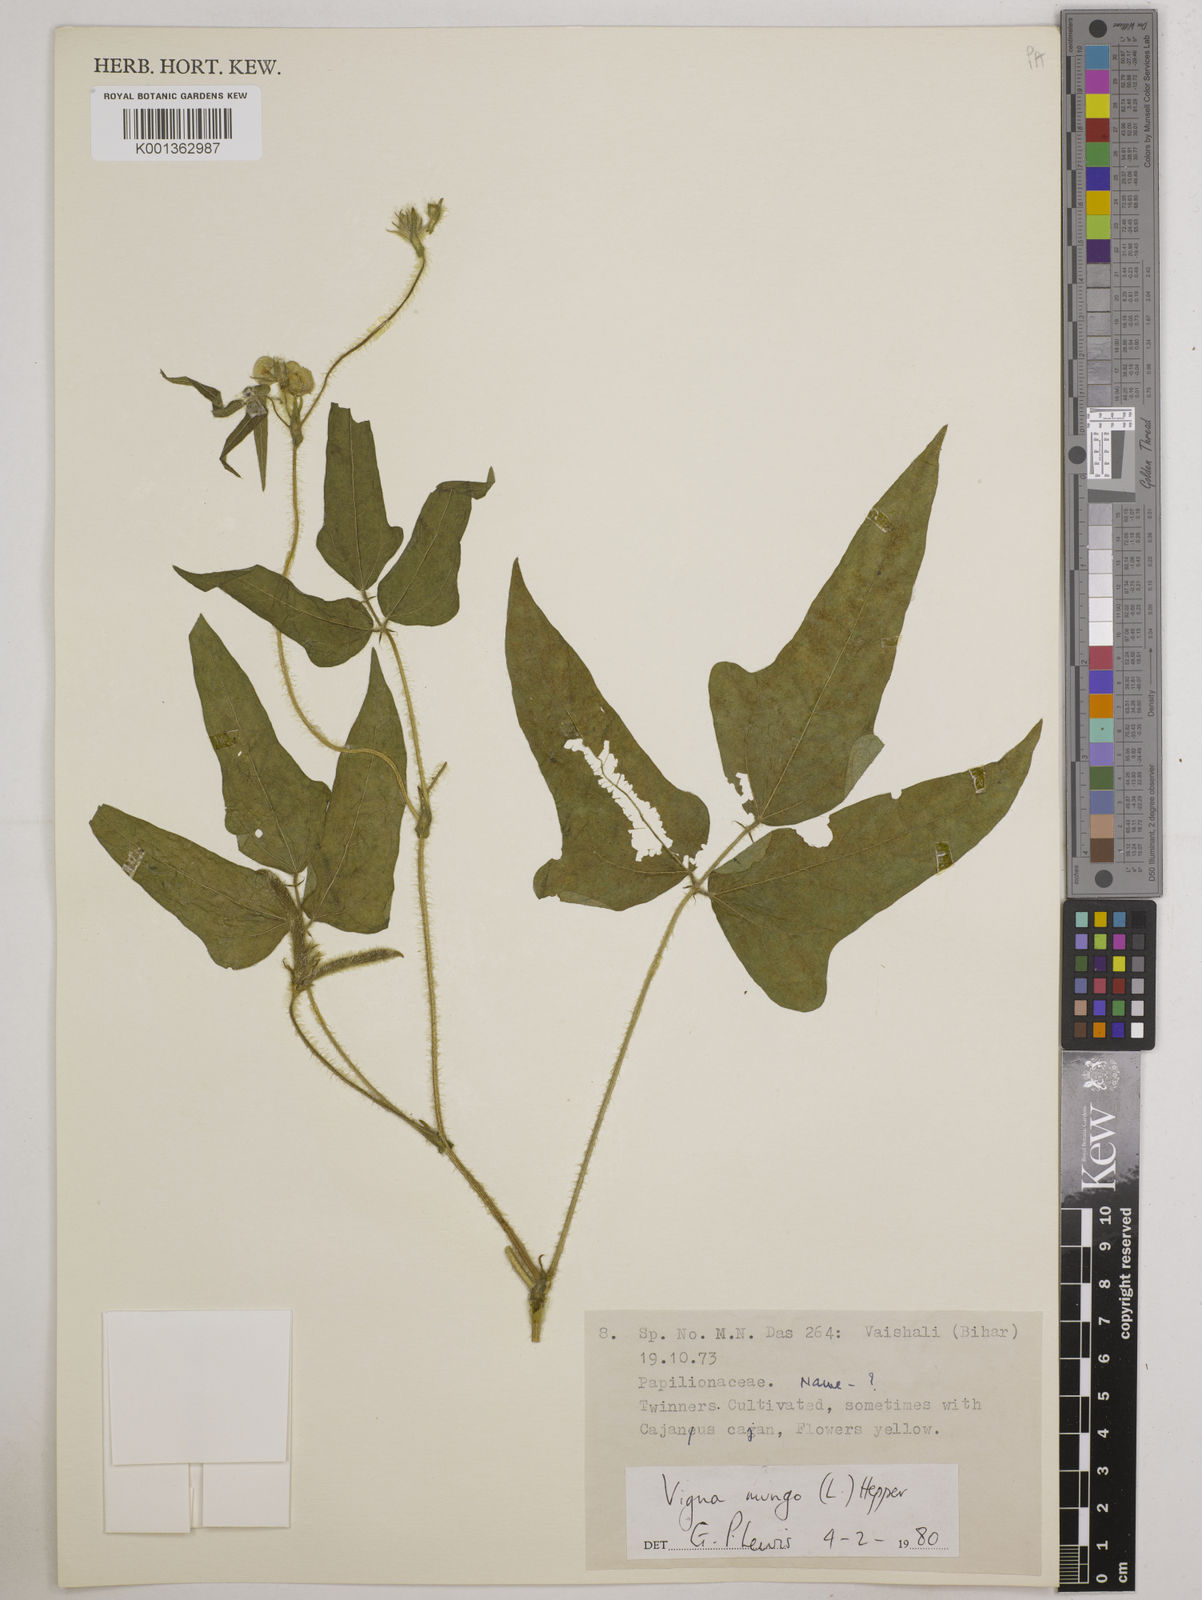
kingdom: Plantae
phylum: Tracheophyta
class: Magnoliopsida
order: Fabales
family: Fabaceae
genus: Vigna
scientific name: Vigna mungo
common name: Black gram
